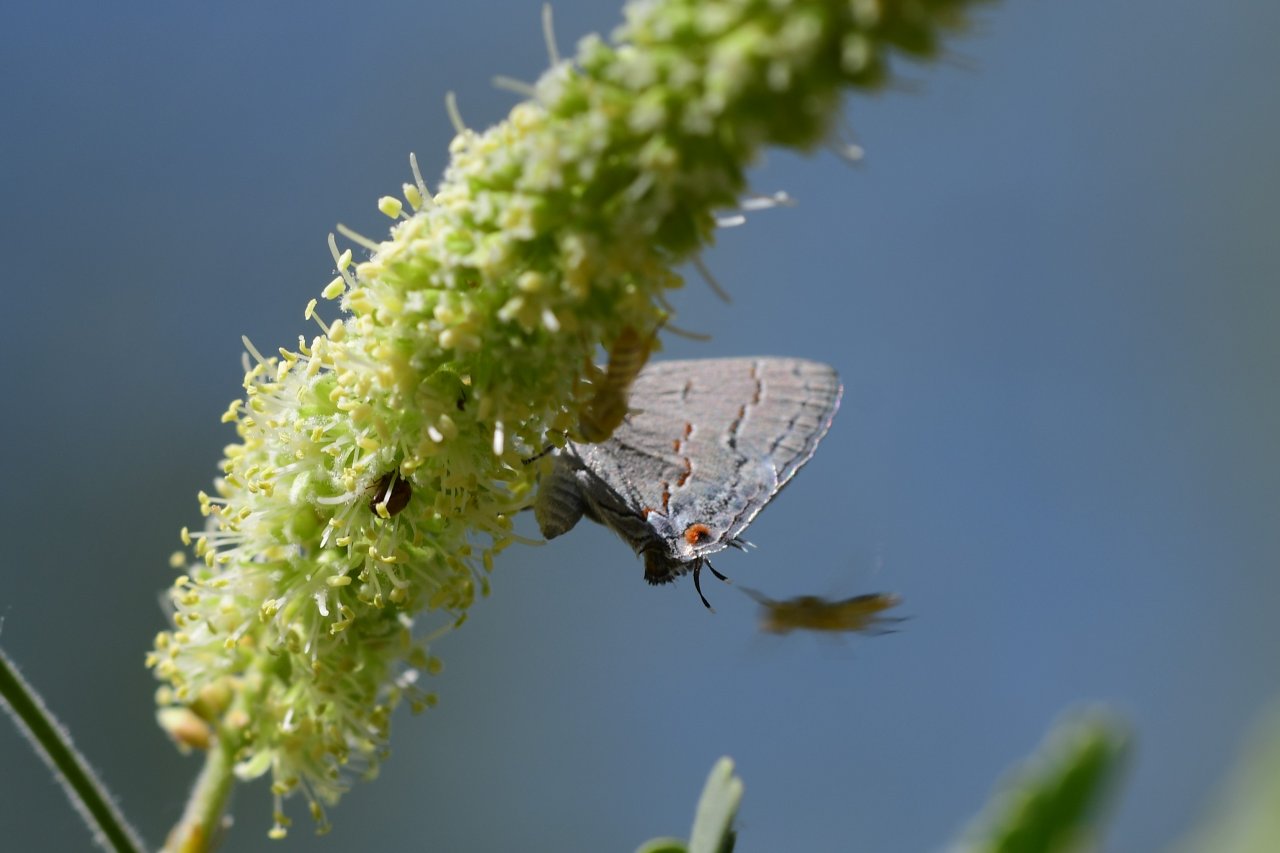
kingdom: Animalia
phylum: Arthropoda
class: Insecta
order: Lepidoptera
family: Lycaenidae
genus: Ministrymon
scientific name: Ministrymon leda
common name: Leda Ministreak
